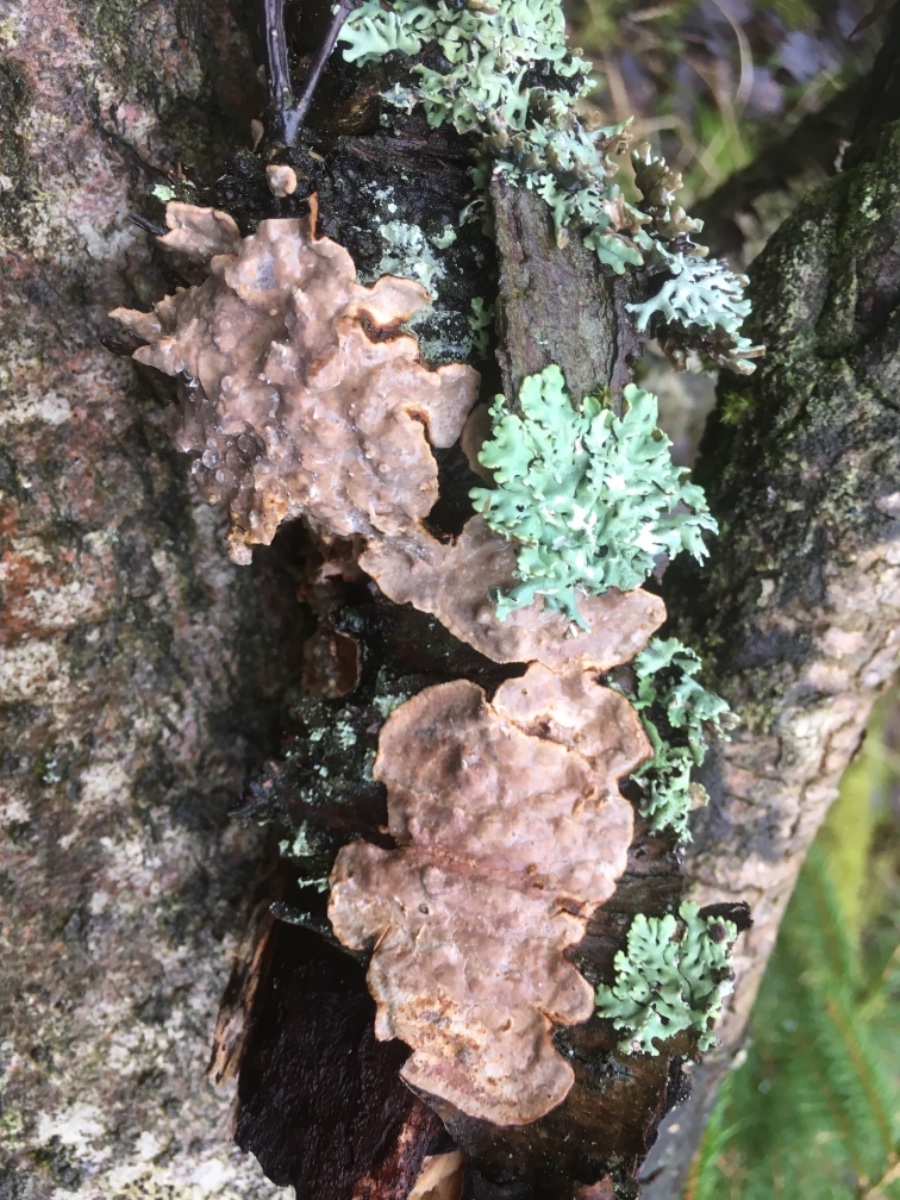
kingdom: Fungi
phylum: Basidiomycota
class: Agaricomycetes
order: Russulales
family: Stereaceae
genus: Stereum
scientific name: Stereum
